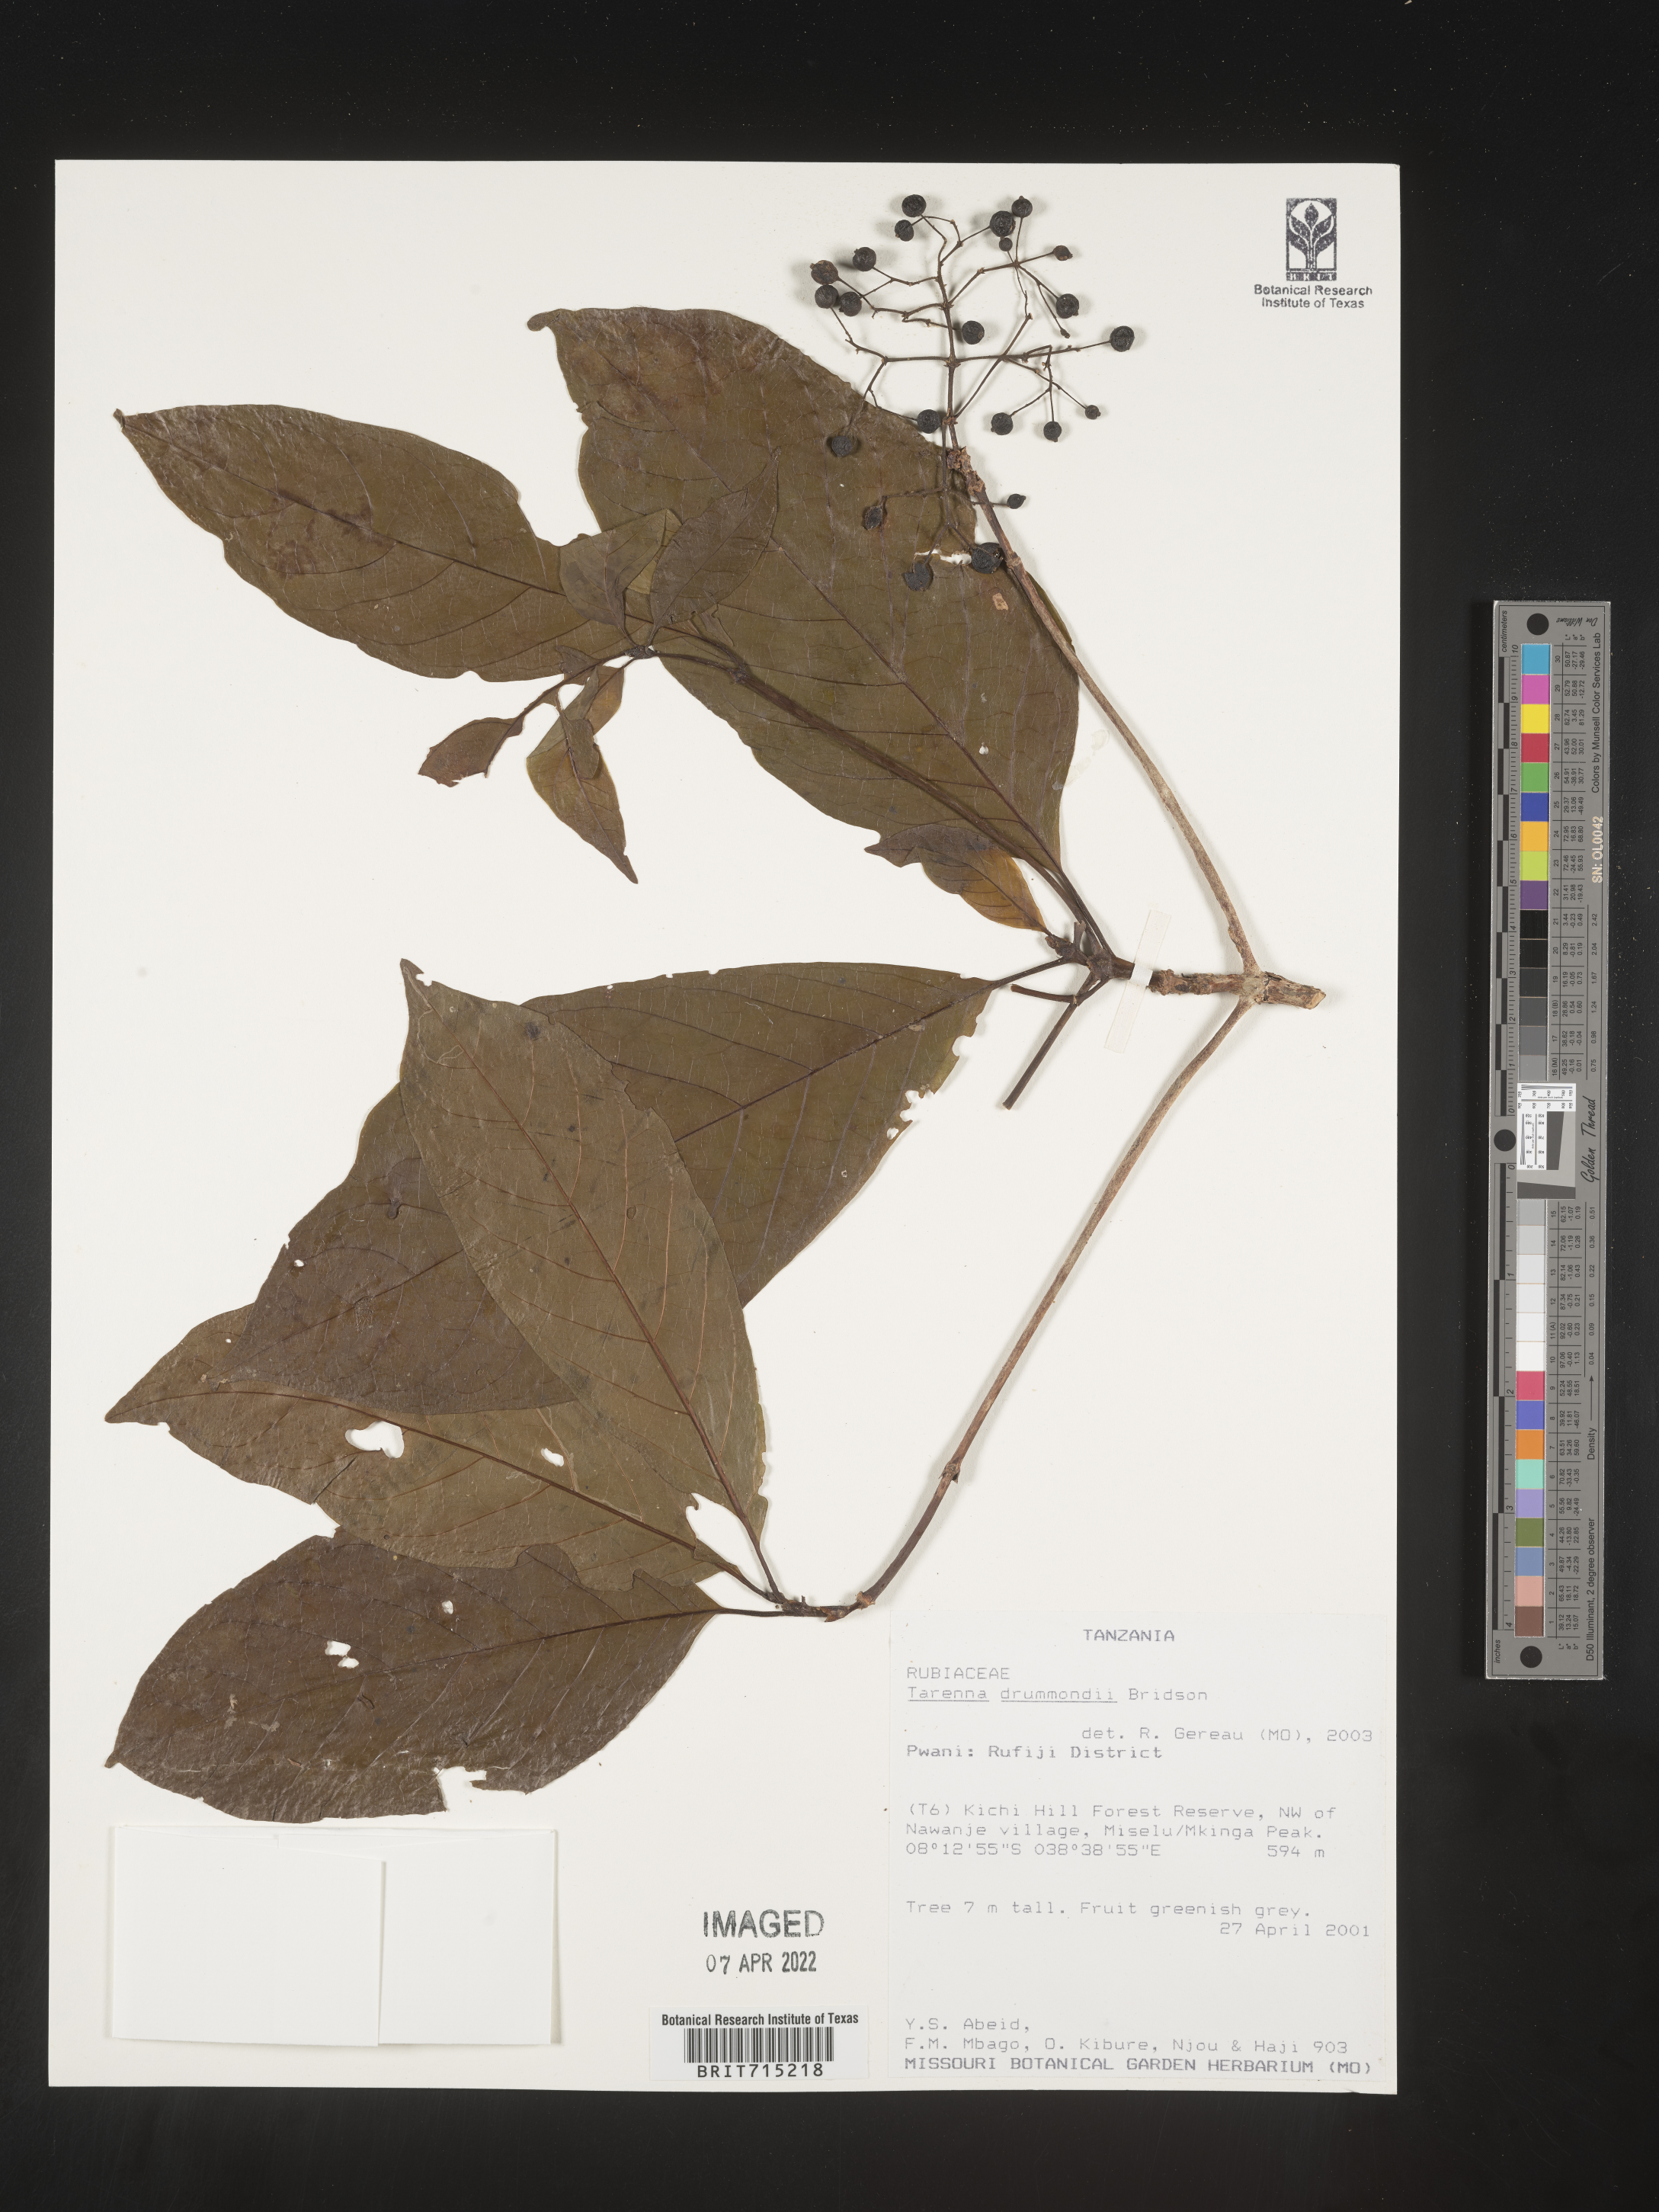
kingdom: Plantae
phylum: Tracheophyta
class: Magnoliopsida
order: Gentianales
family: Rubiaceae
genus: Tarenna
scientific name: Tarenna
